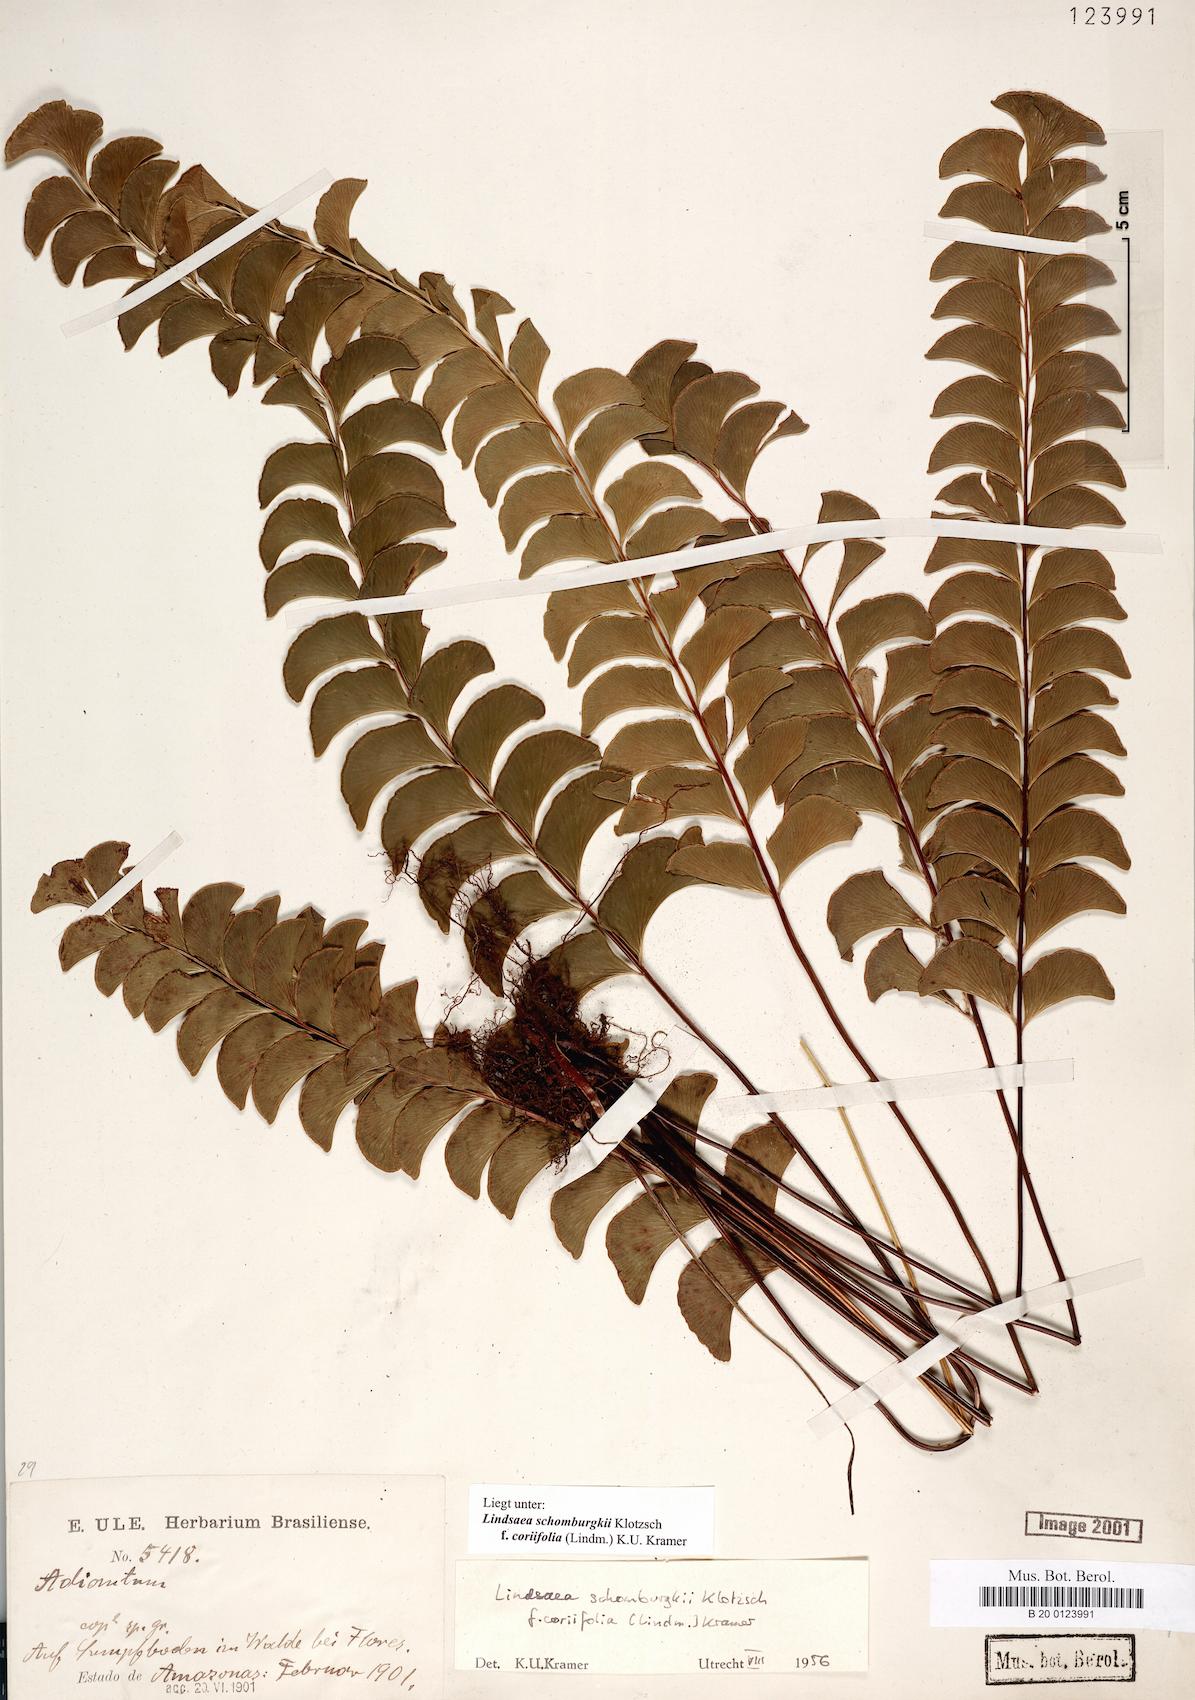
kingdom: Plantae
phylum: Tracheophyta
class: Polypodiopsida
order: Polypodiales
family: Lindsaeaceae
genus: Lindsaea
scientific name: Lindsaea schomburgkii
